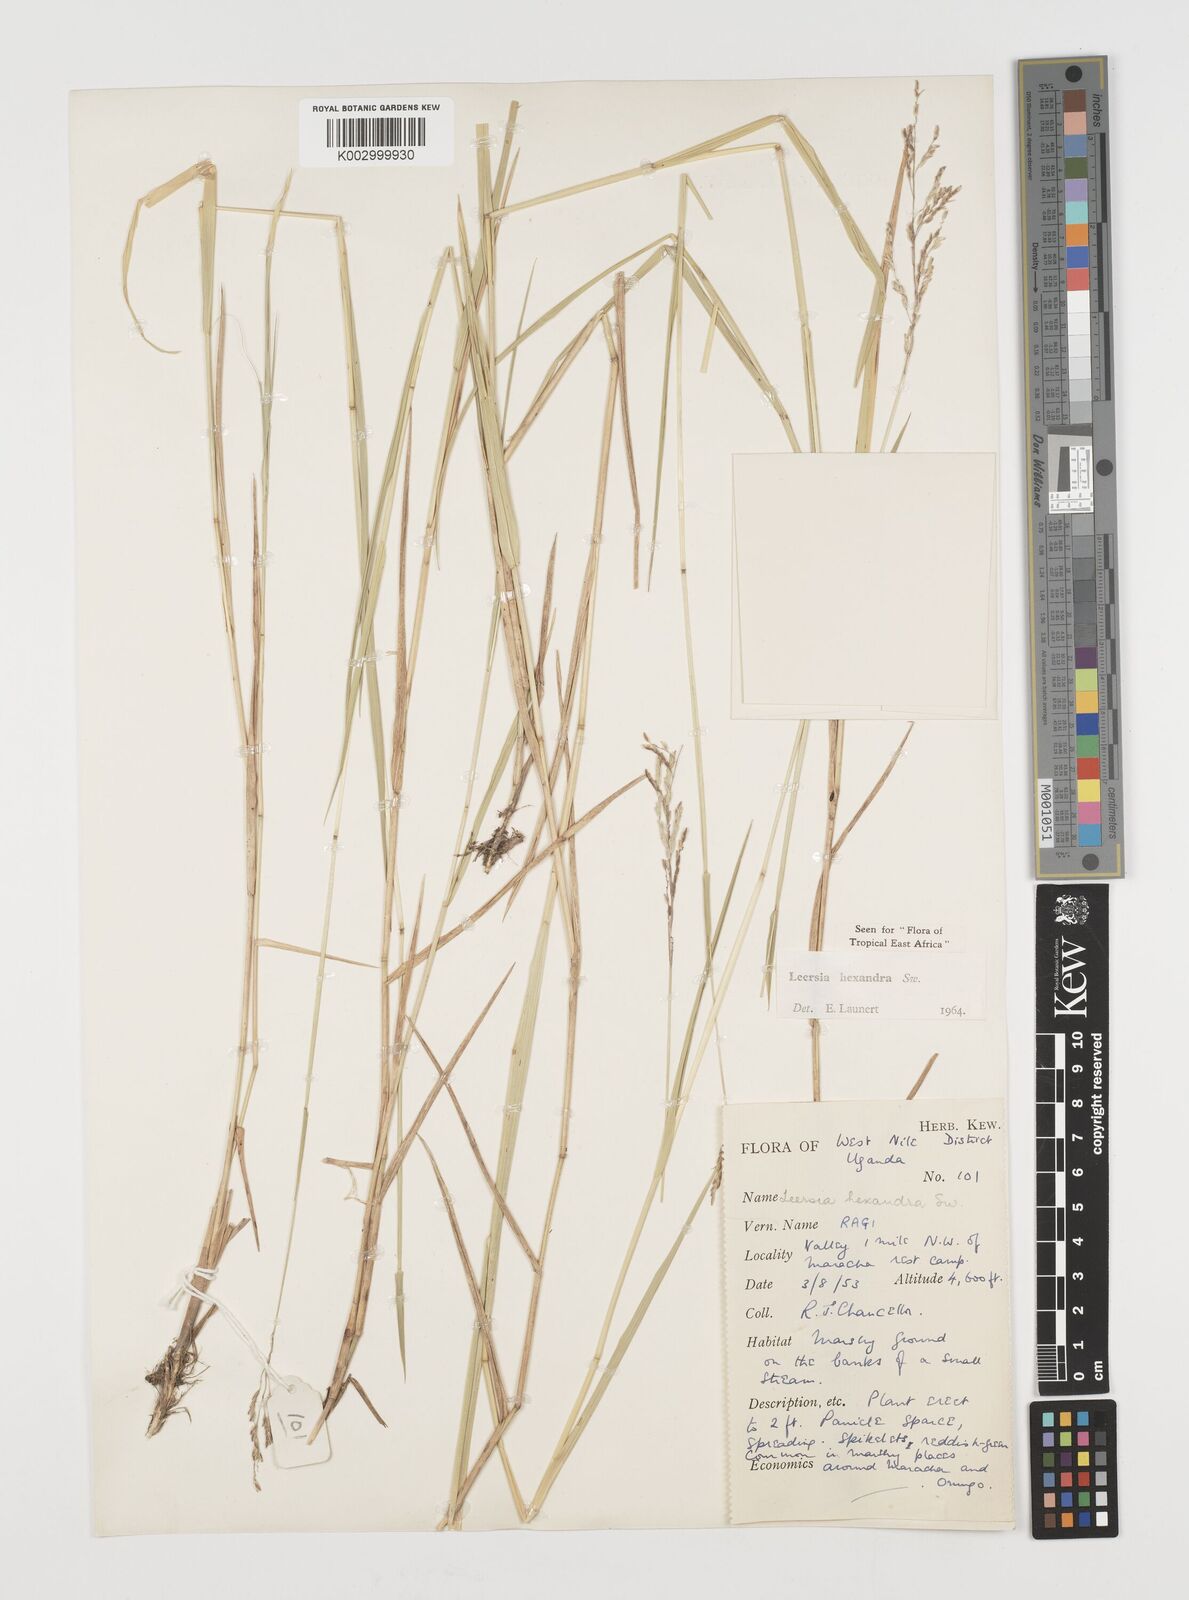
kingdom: Plantae
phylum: Tracheophyta
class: Liliopsida
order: Poales
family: Poaceae
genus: Leersia
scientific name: Leersia hexandra
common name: Southern cut grass
